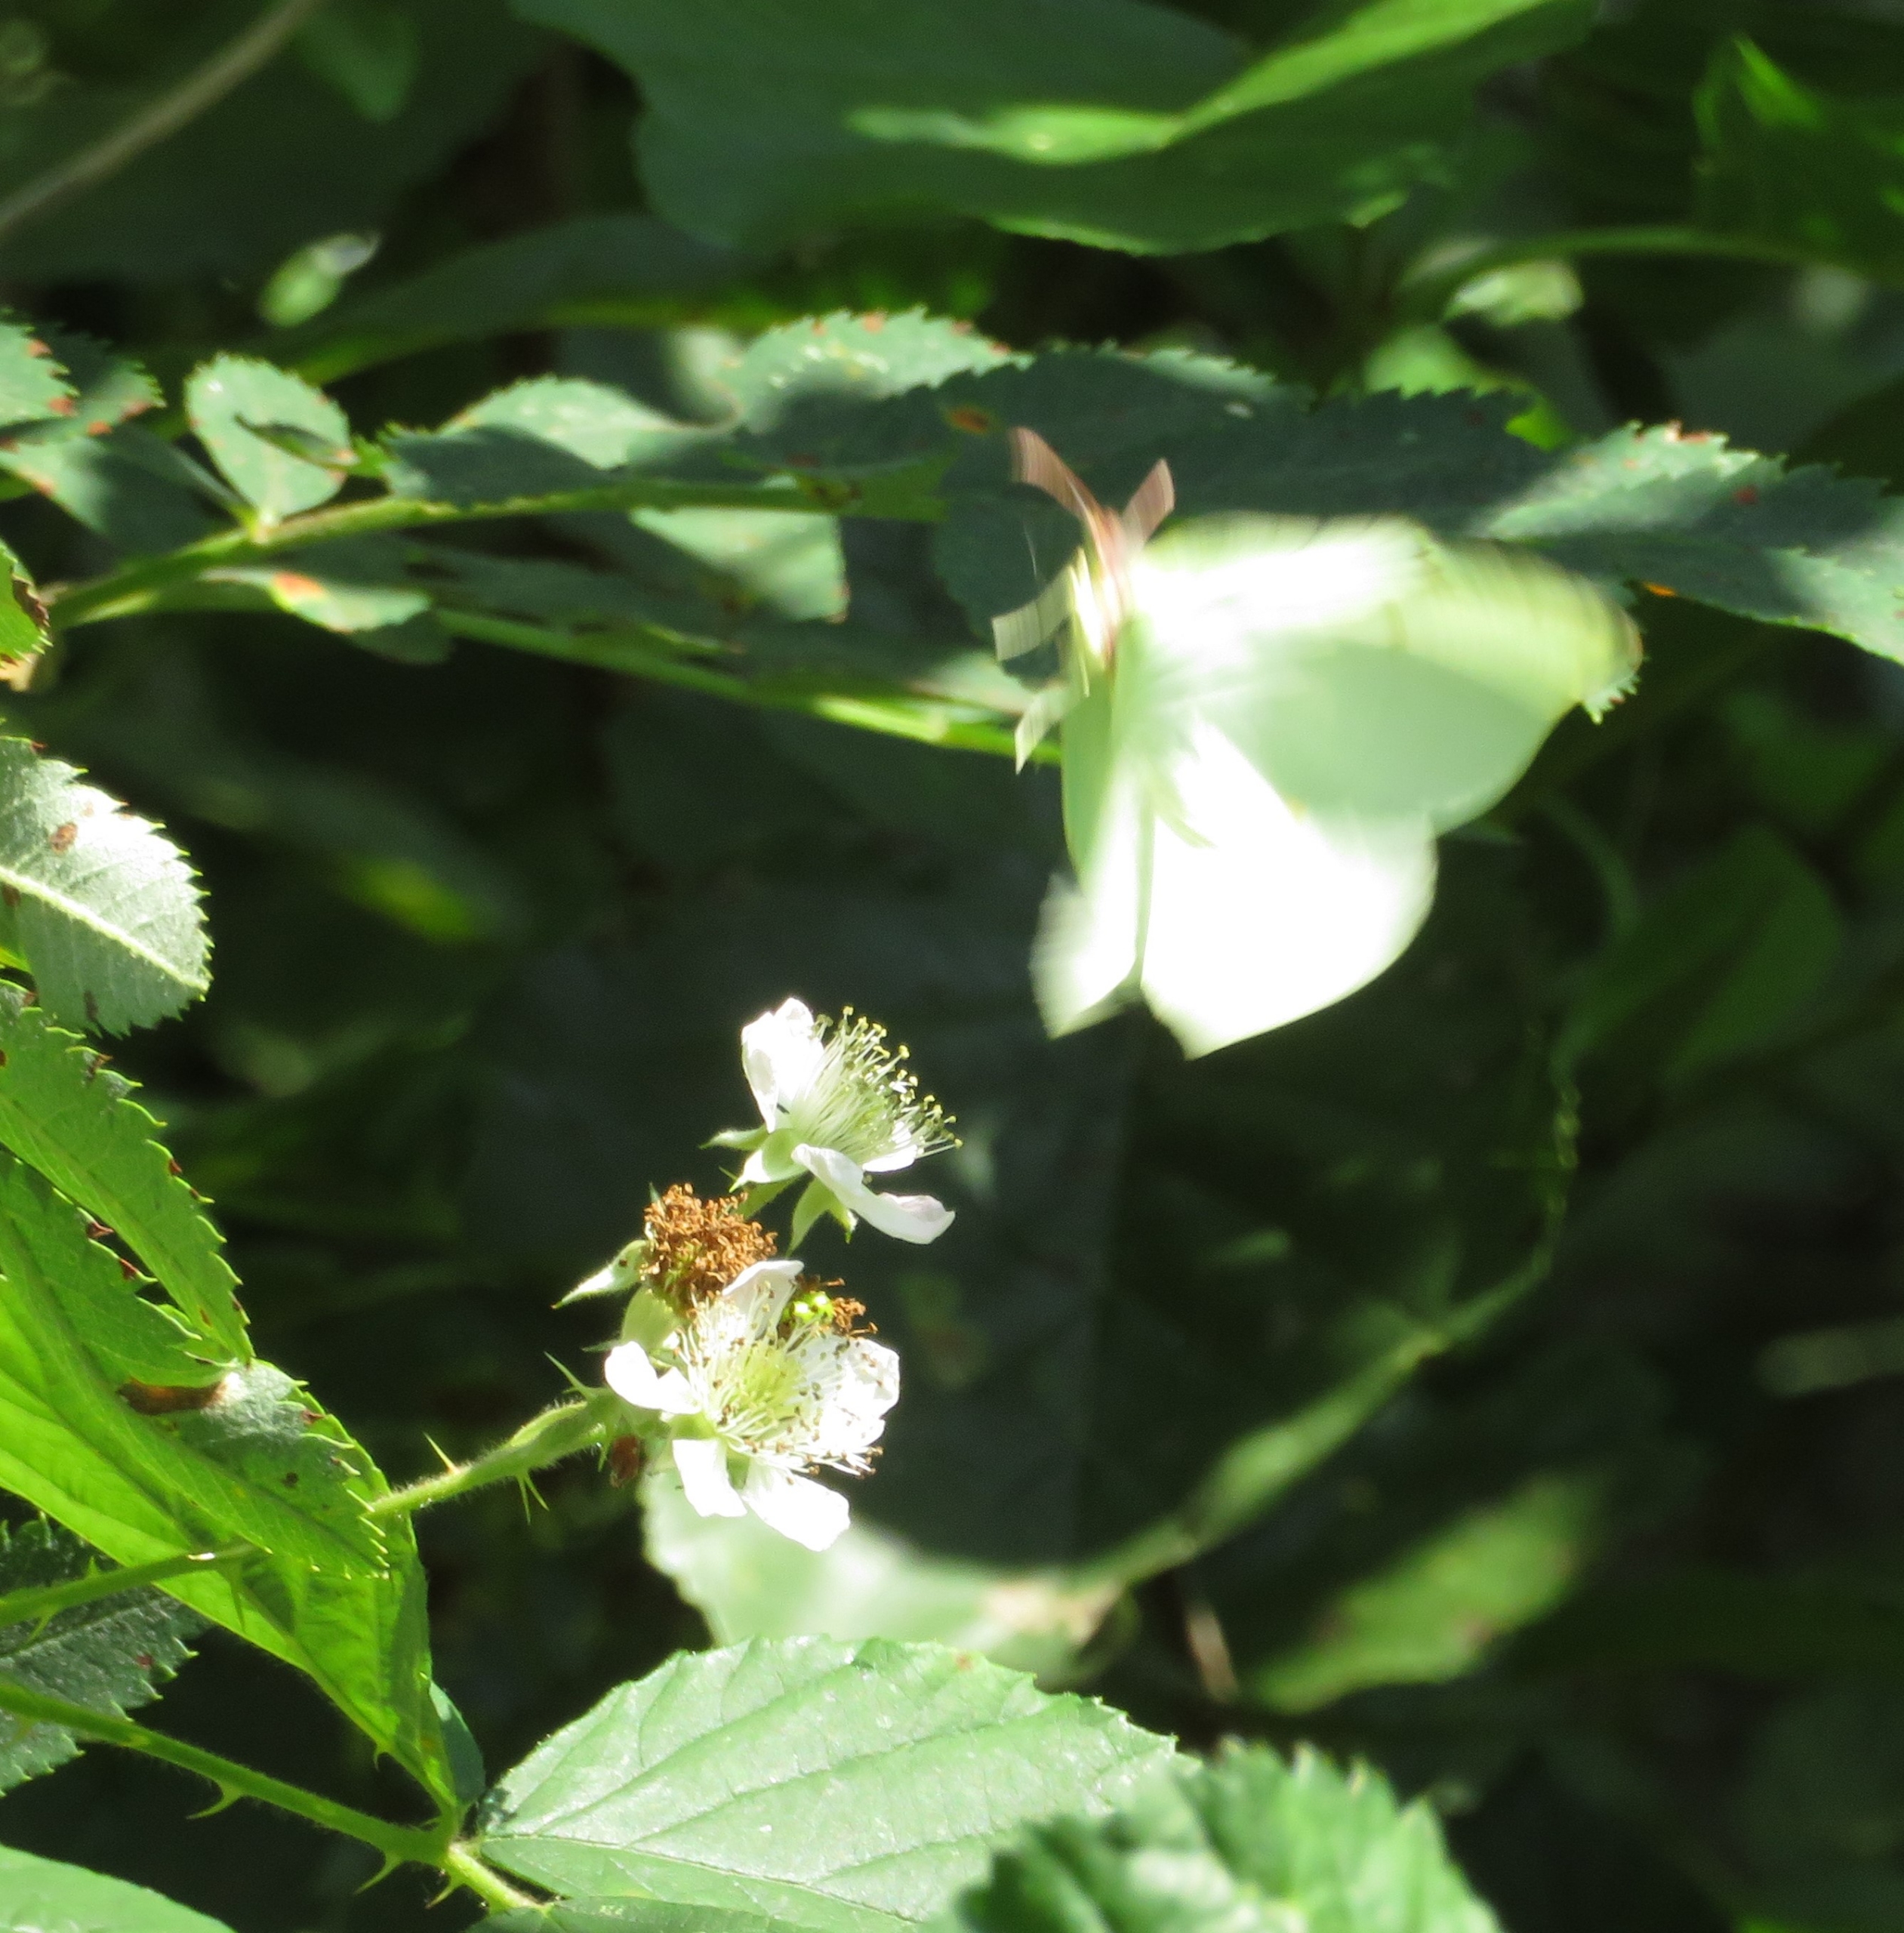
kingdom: Animalia
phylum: Arthropoda
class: Insecta
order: Lepidoptera
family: Pieridae
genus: Gonepteryx
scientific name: Gonepteryx rhamni
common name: Citronsommerfugl
